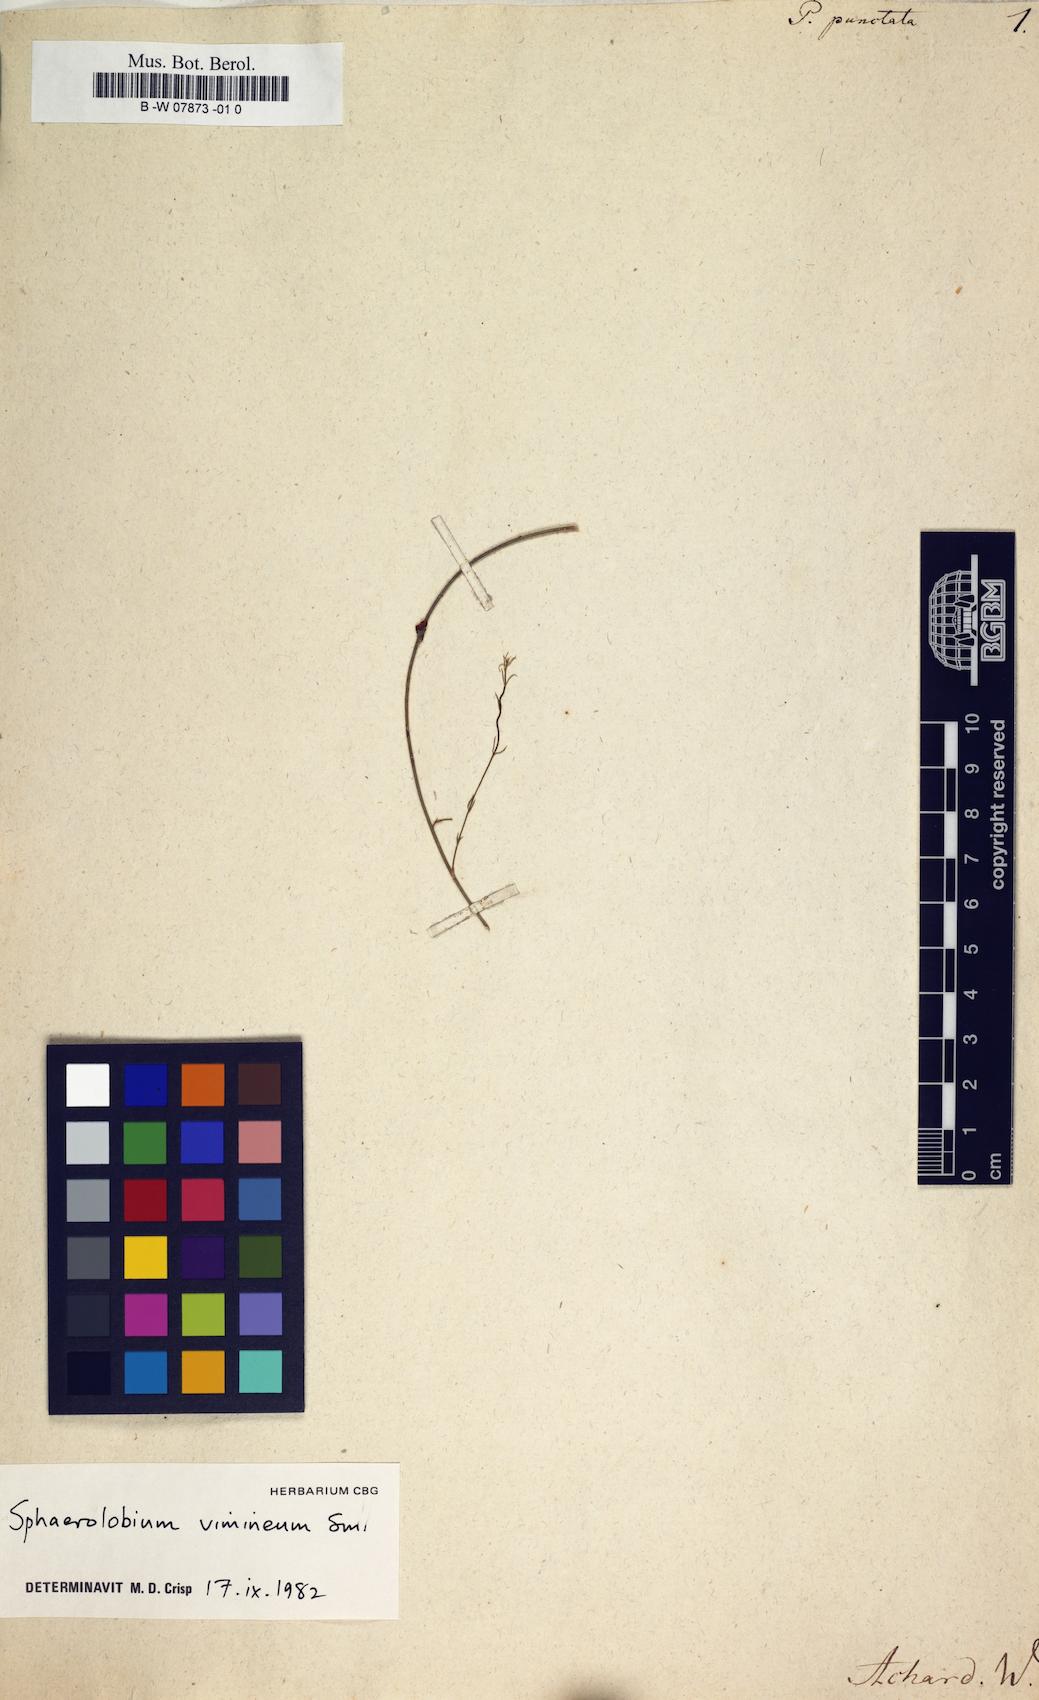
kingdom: Plantae
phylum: Tracheophyta
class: Magnoliopsida
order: Fabales
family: Fabaceae
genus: Pultenaea
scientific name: Pultenaea
